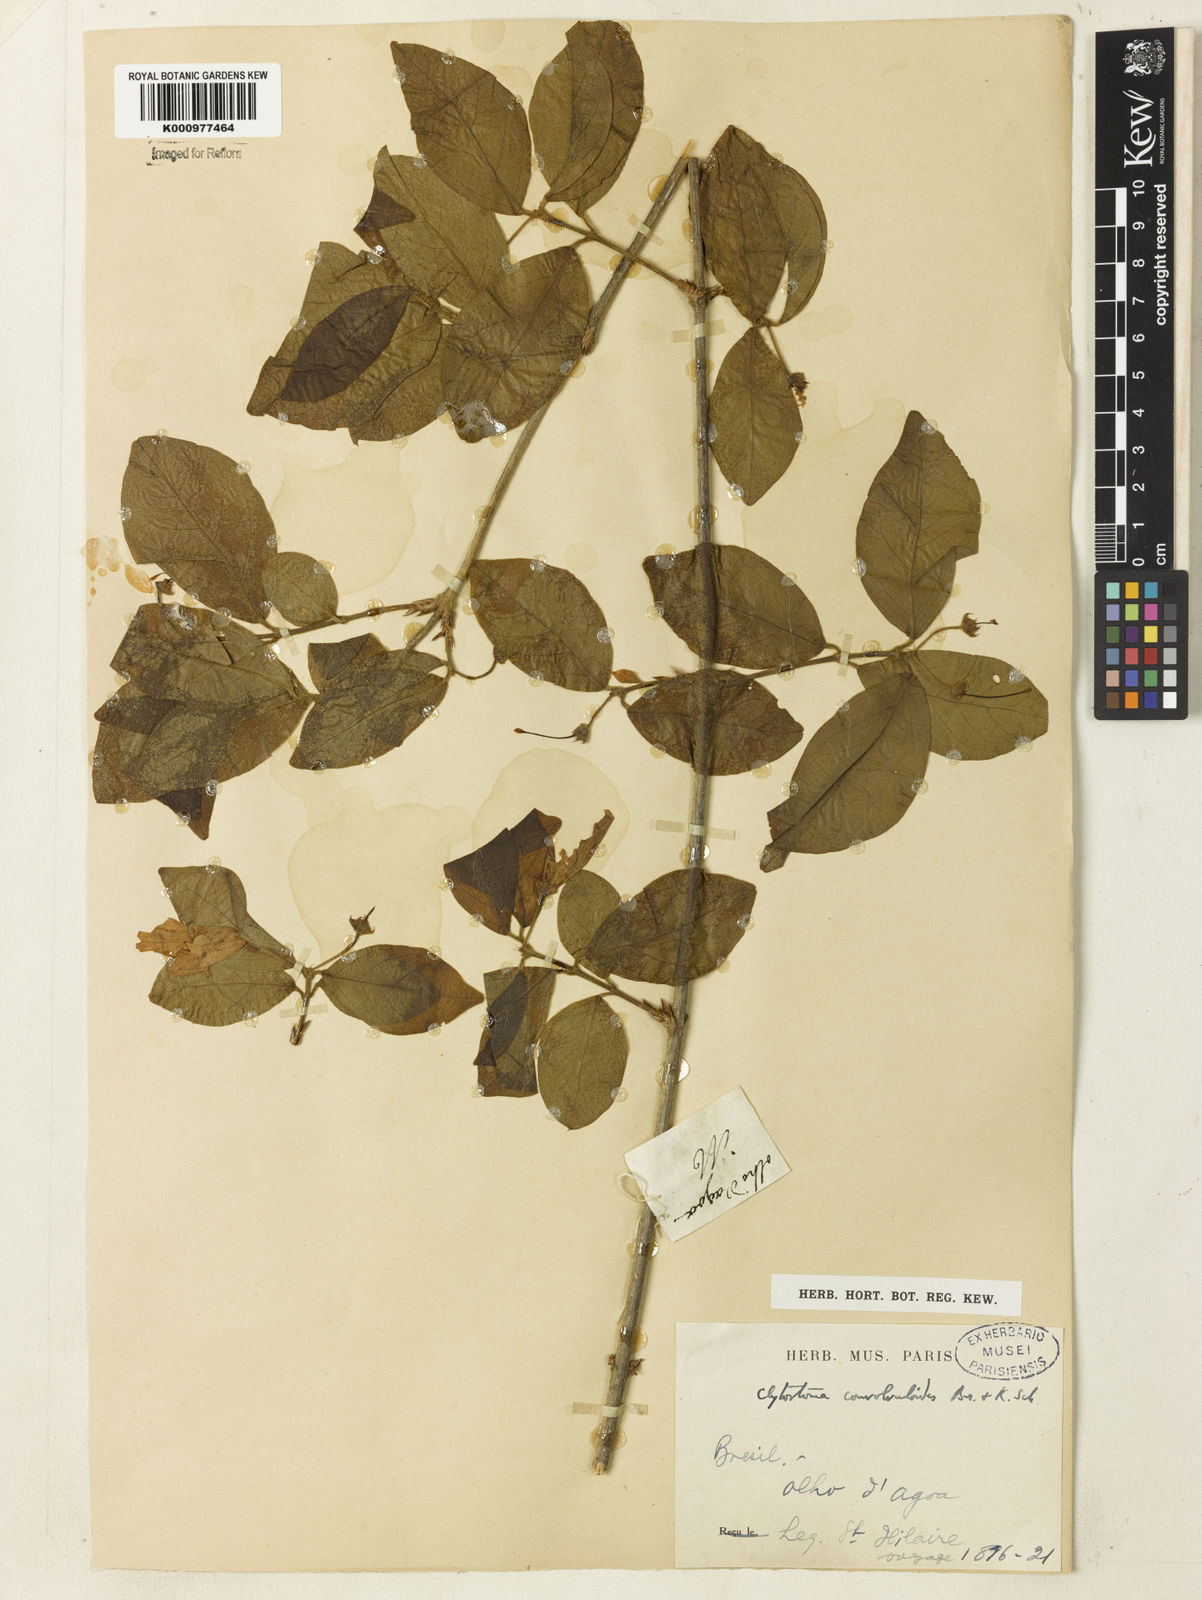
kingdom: Plantae
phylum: Tracheophyta
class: Magnoliopsida
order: Lamiales
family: Bignoniaceae
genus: Bignonia
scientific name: Bignonia convolvuloides
